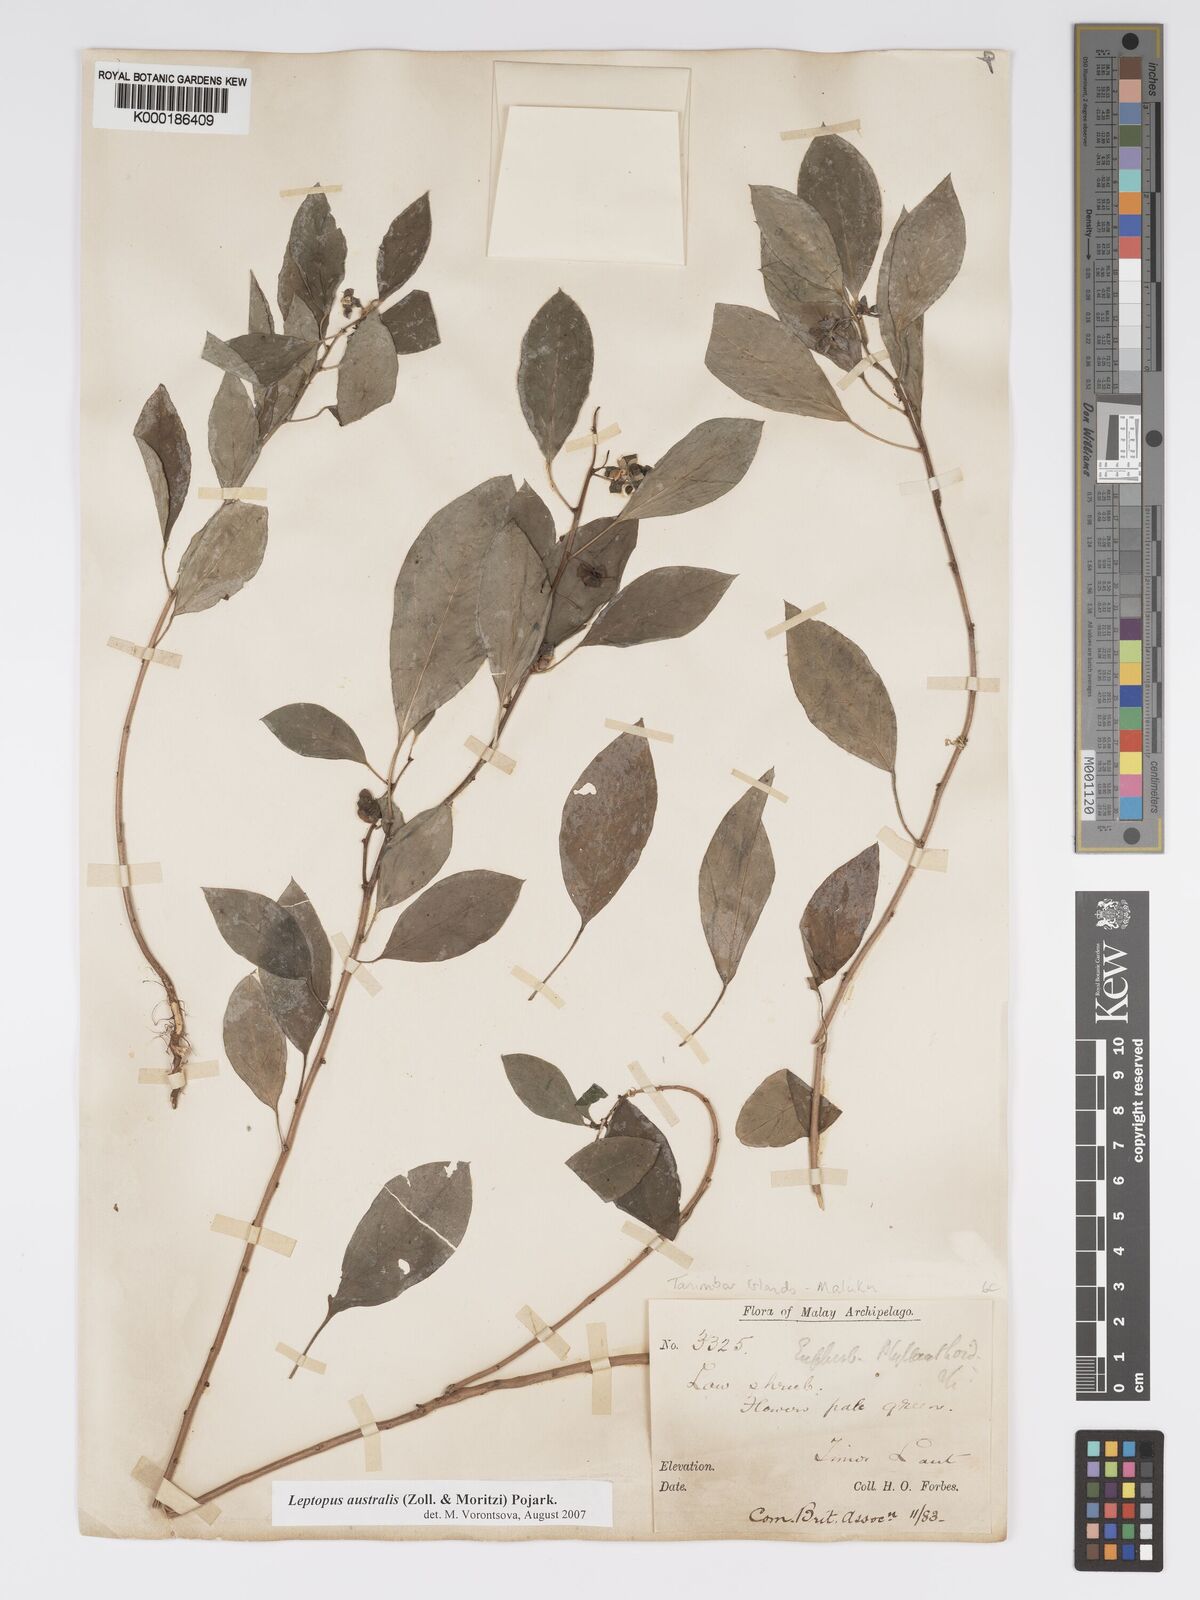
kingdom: Plantae
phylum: Tracheophyta
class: Magnoliopsida
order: Malpighiales
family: Phyllanthaceae
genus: Leptopus
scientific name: Leptopus australis
